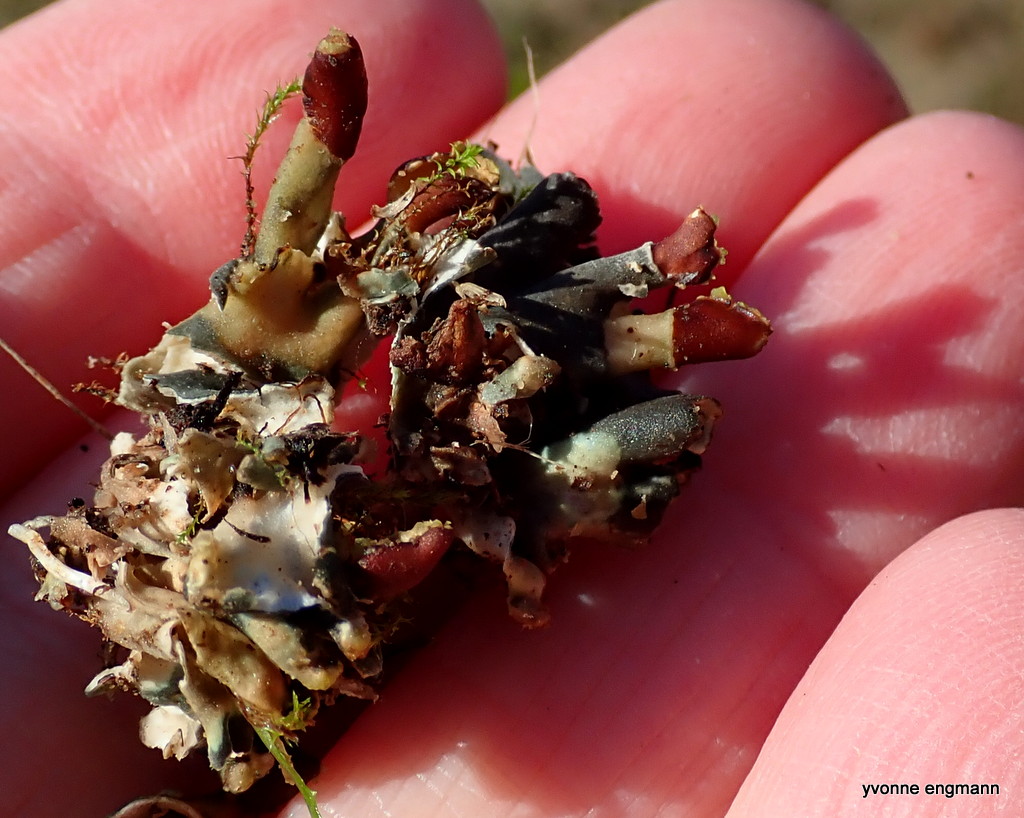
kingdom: Fungi
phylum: Ascomycota
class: Lecanoromycetes
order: Peltigerales
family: Peltigeraceae
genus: Peltigera
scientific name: Peltigera didactyla
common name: liden skjoldlav
